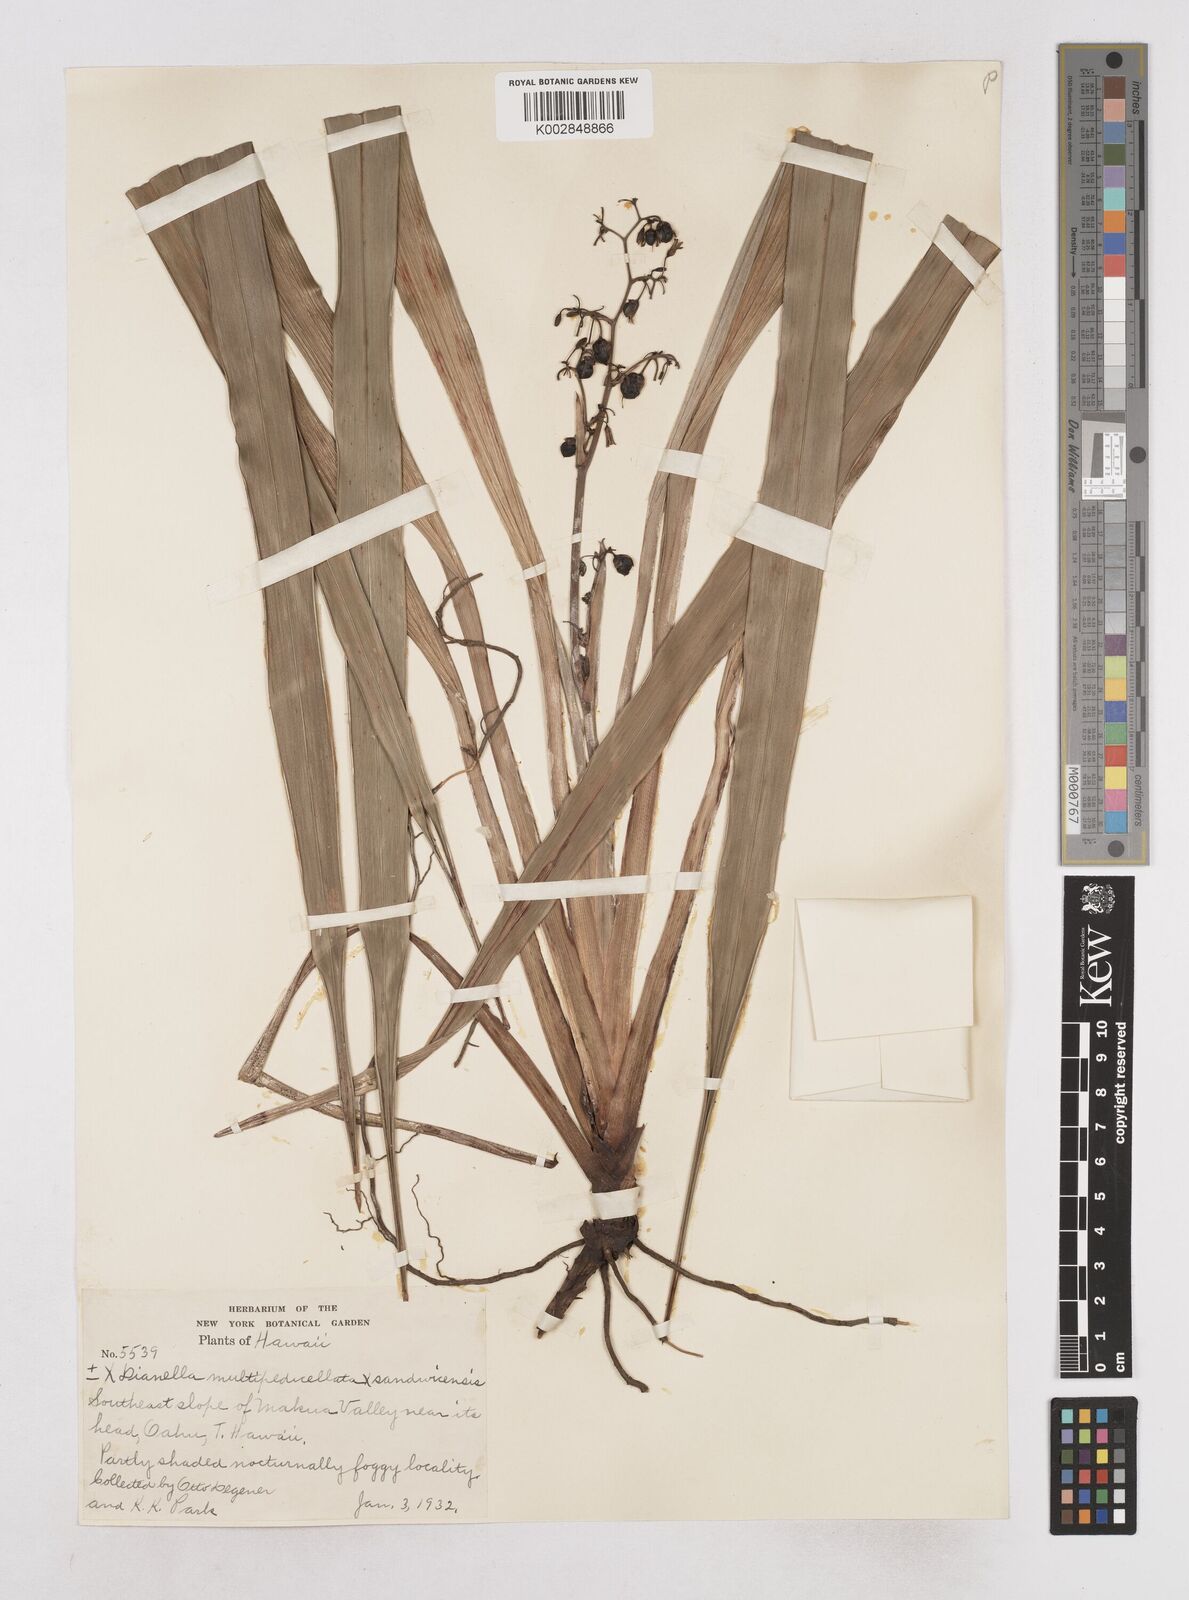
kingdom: Plantae
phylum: Tracheophyta
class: Liliopsida
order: Asparagales
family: Asphodelaceae
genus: Dianella
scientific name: Dianella sandwicensis
